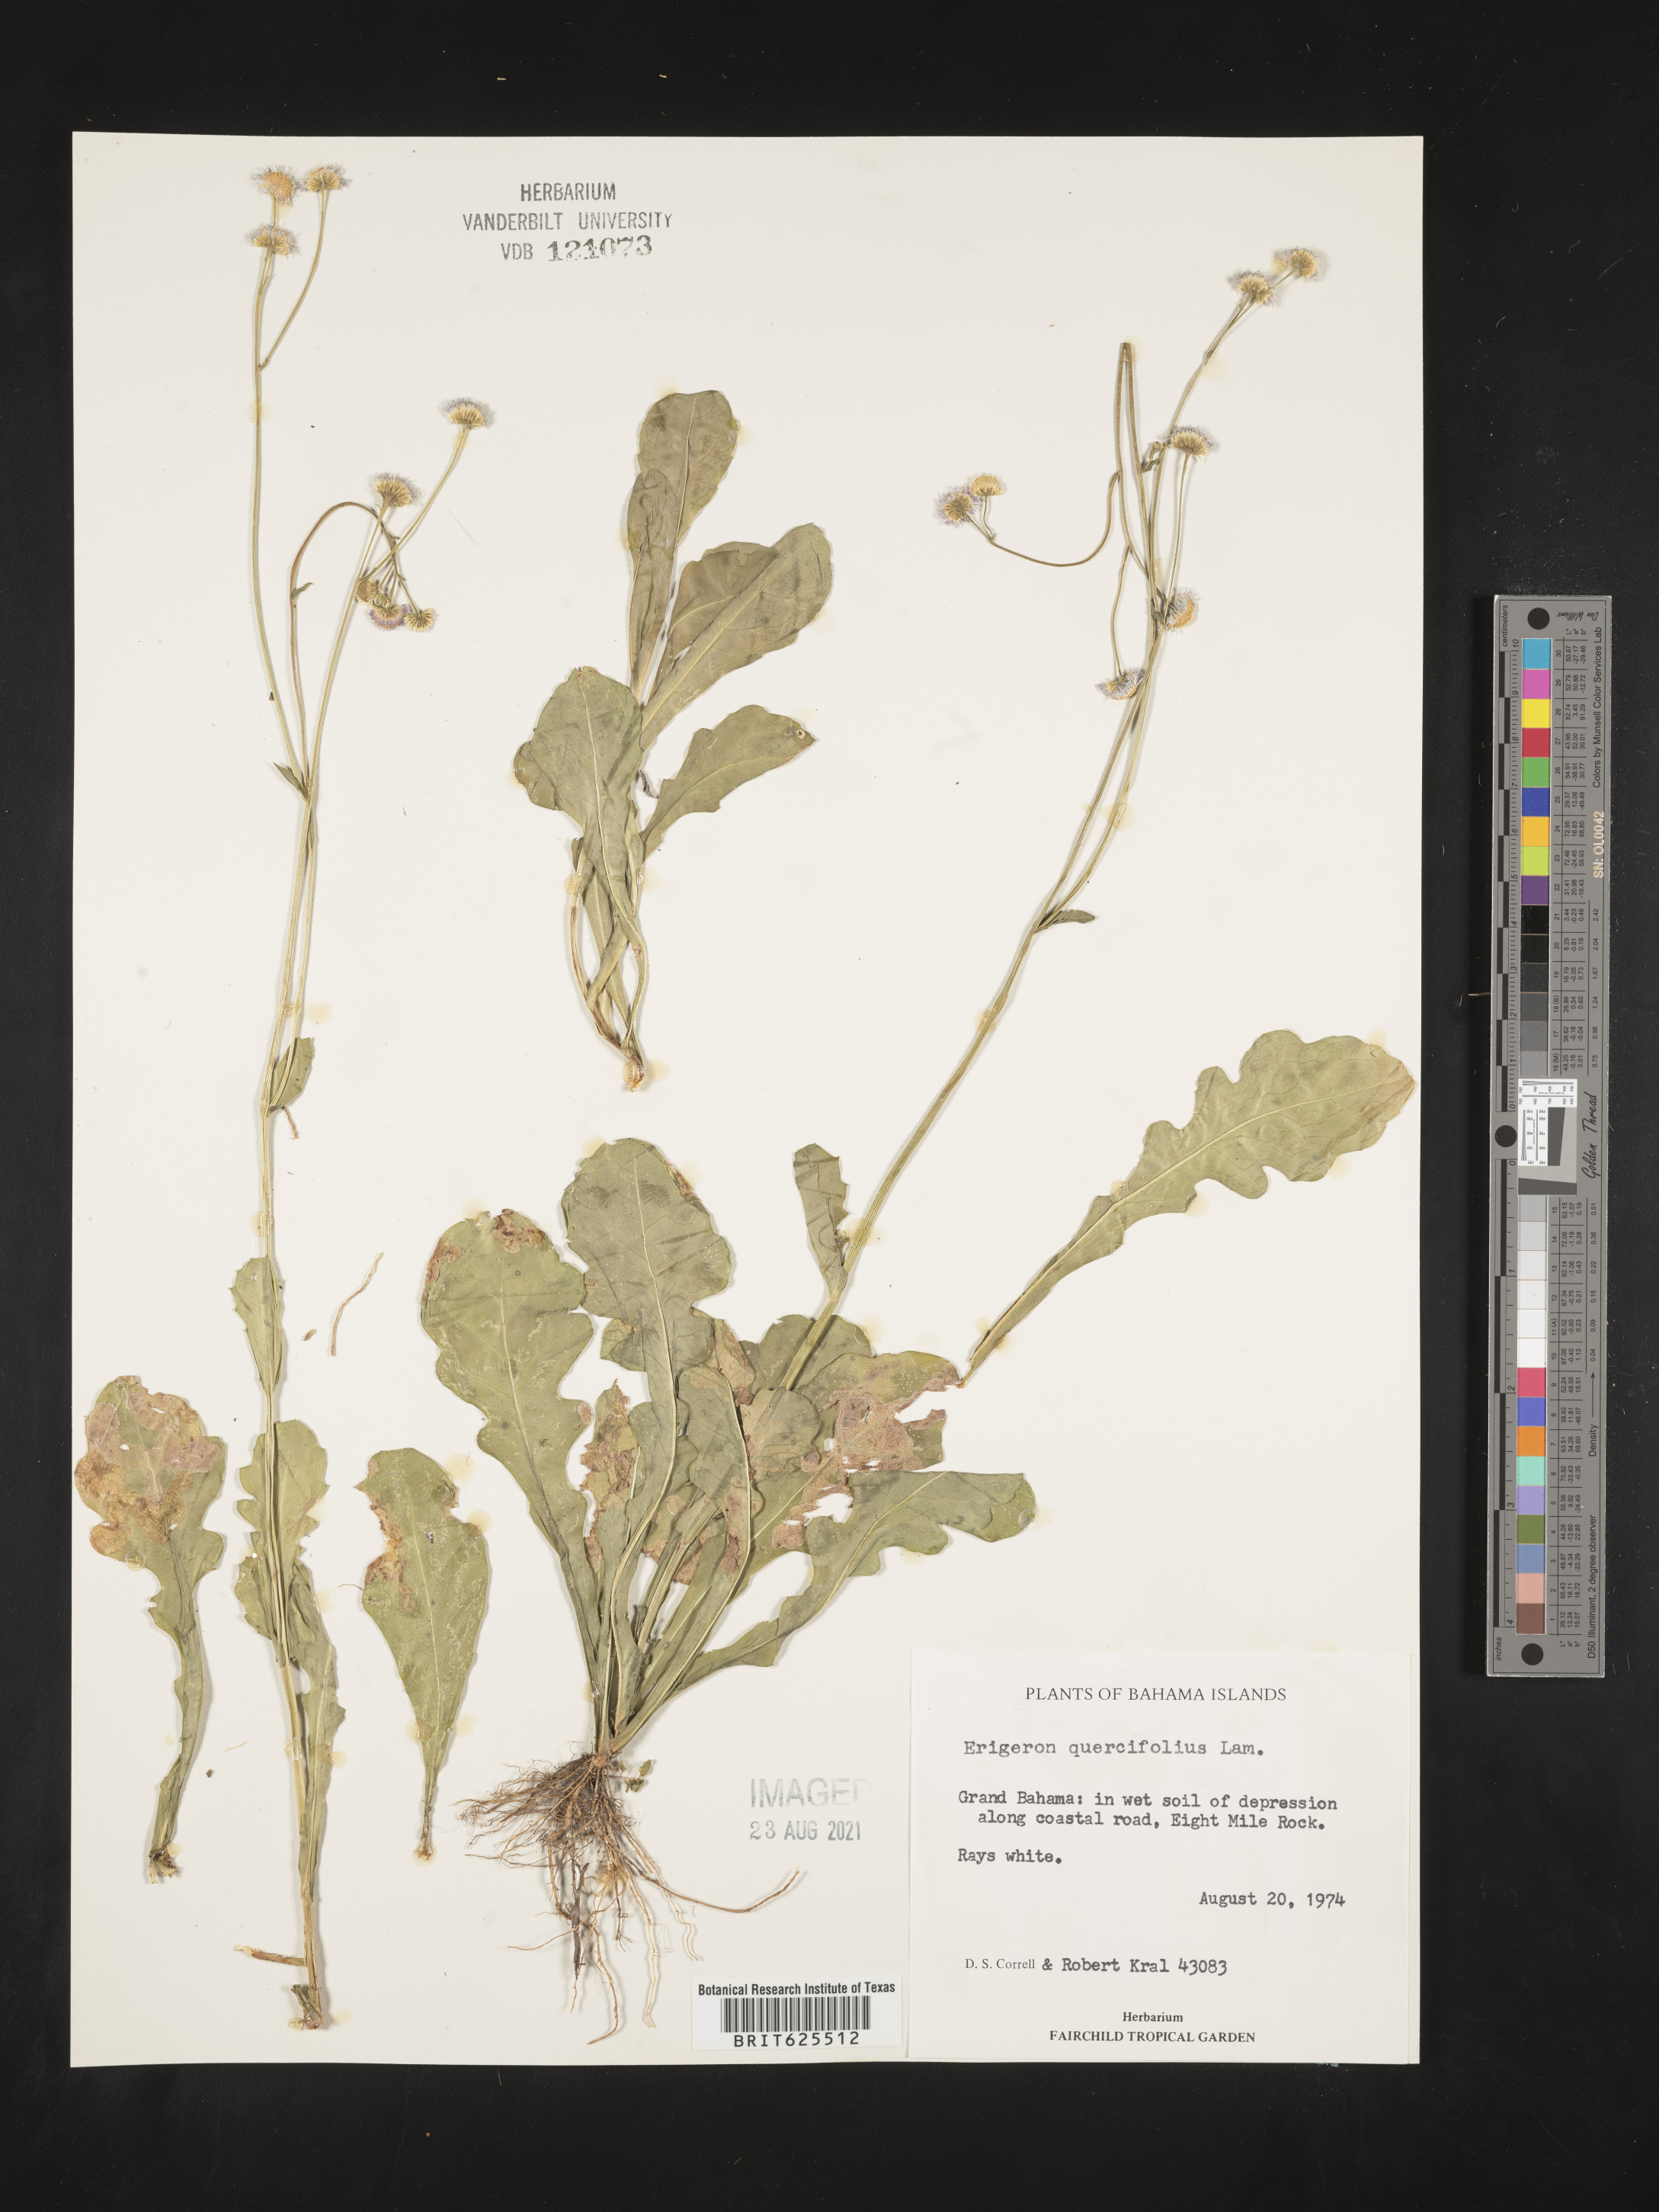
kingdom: Plantae
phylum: Tracheophyta
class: Magnoliopsida
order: Asterales
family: Asteraceae
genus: Erigeron
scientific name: Erigeron quercifolius
